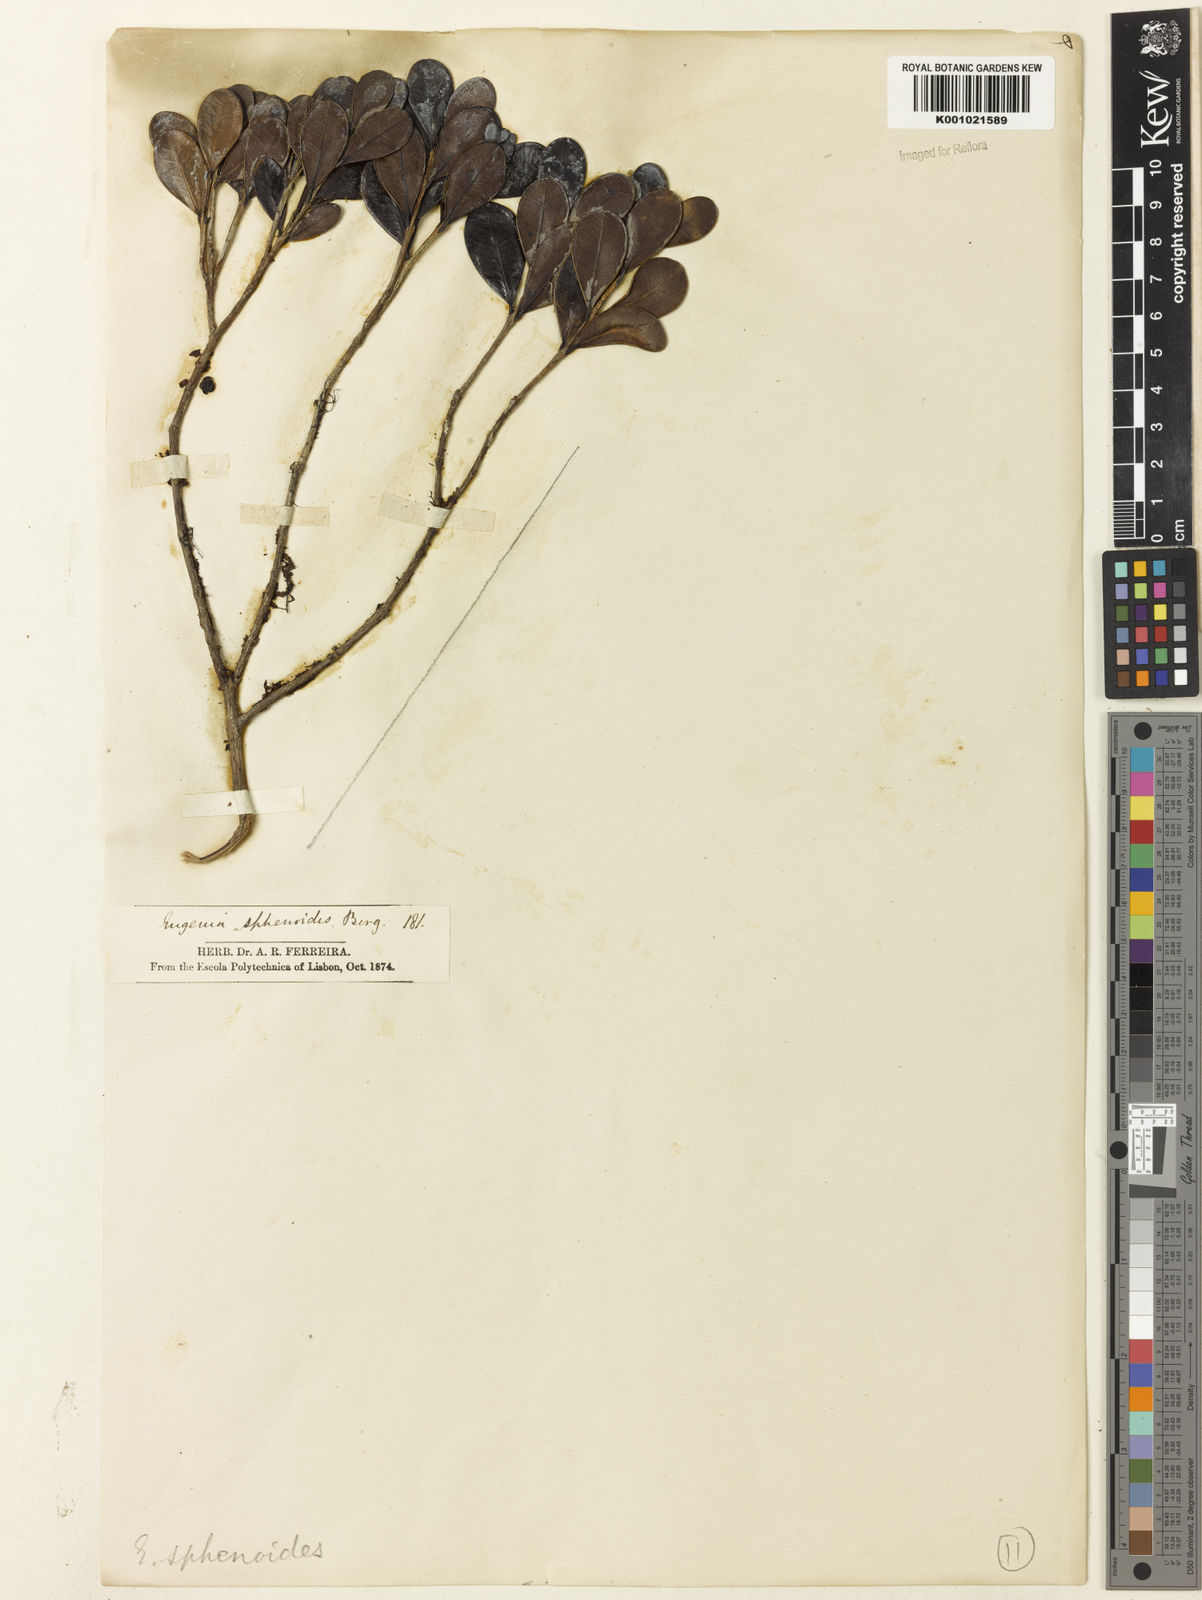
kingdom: Plantae
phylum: Tracheophyta
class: Magnoliopsida
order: Myrtales
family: Myrtaceae
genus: Eugenia
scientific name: Eugenia sphenoides
